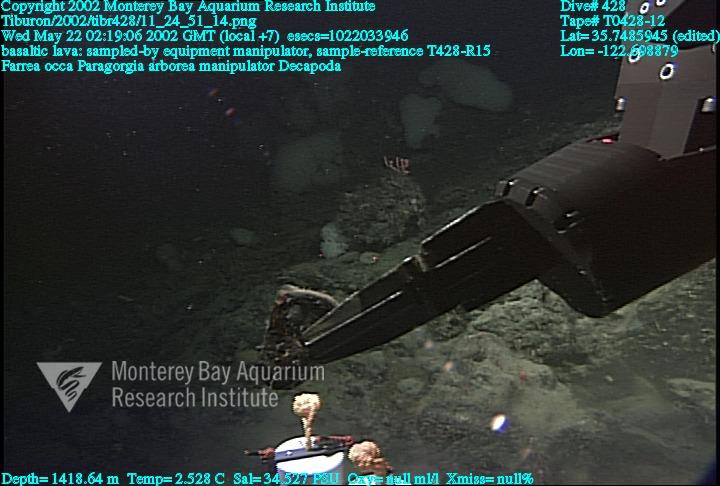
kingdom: Animalia
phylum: Porifera
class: Hexactinellida
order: Sceptrulophora
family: Farreidae
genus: Farrea
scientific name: Farrea occa
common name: Reversed glass sponge
